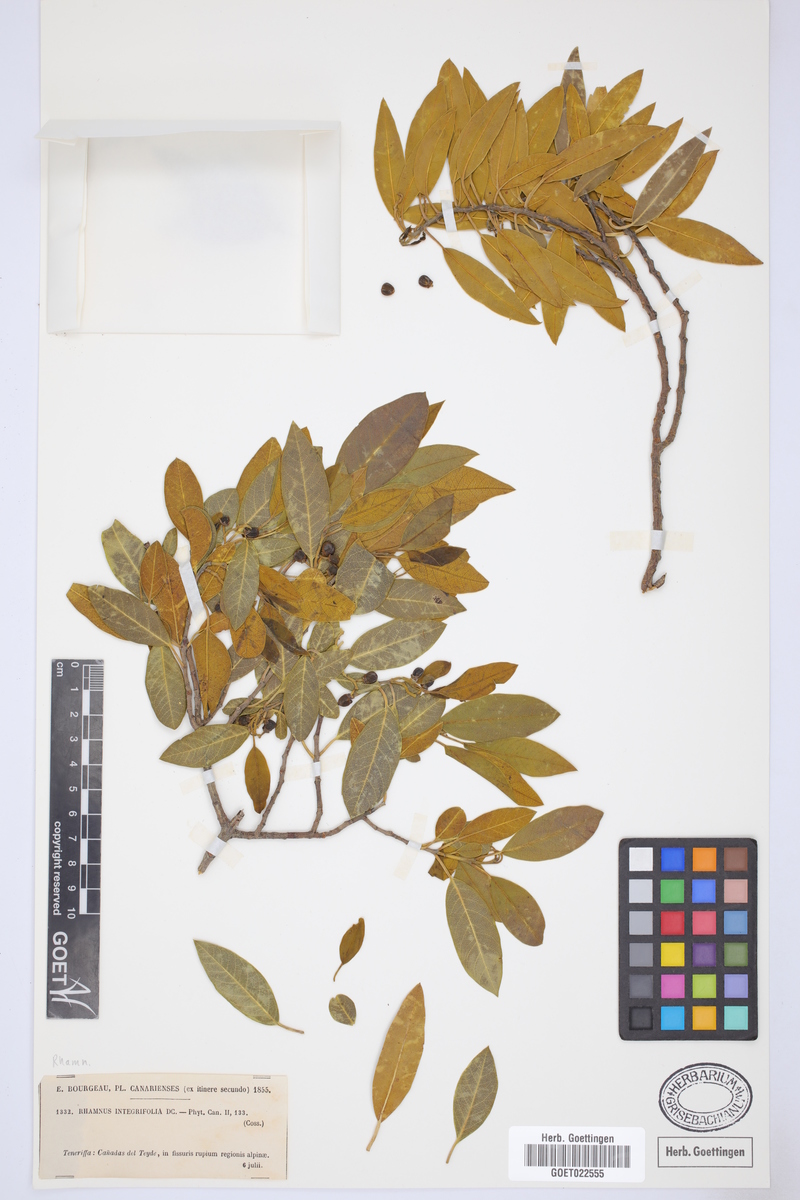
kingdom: Plantae
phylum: Tracheophyta
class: Magnoliopsida
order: Rosales
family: Rhamnaceae
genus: Rhamnus
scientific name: Rhamnus integrifolia
